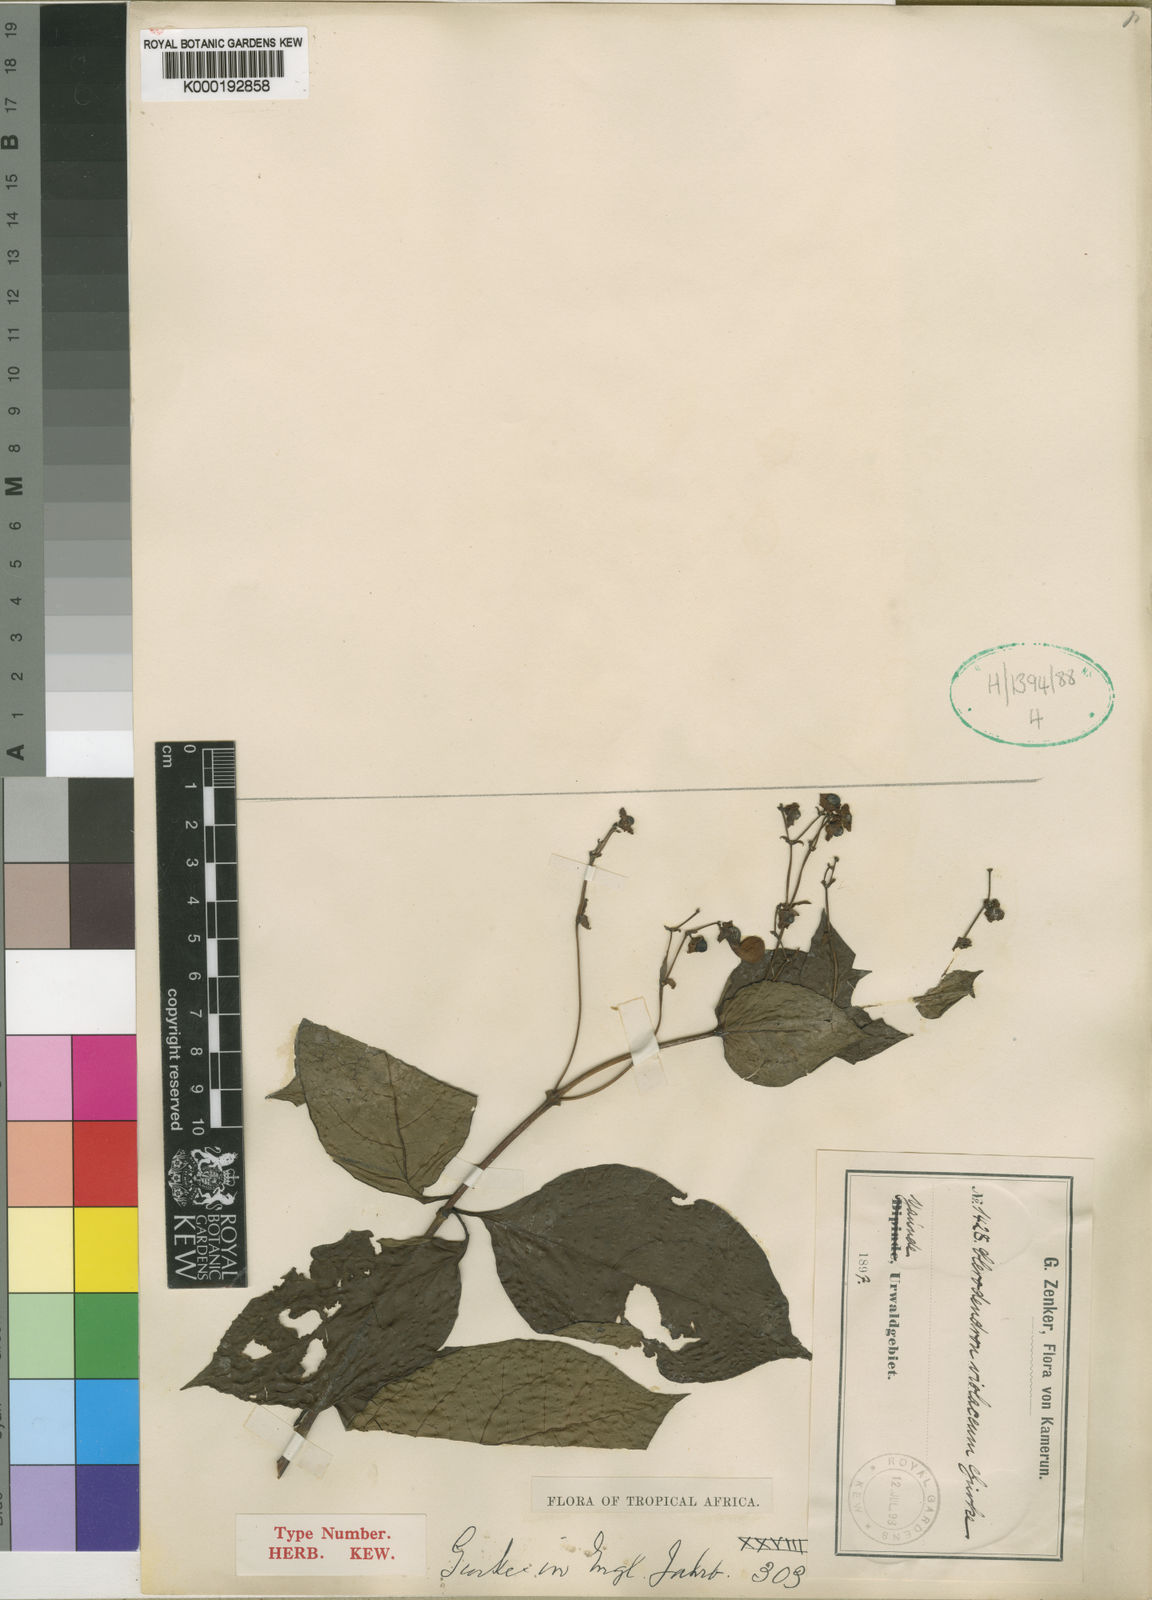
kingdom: Plantae
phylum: Tracheophyta
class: Magnoliopsida
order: Lamiales
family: Lamiaceae
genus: Clerodendrum
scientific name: Clerodendrum
